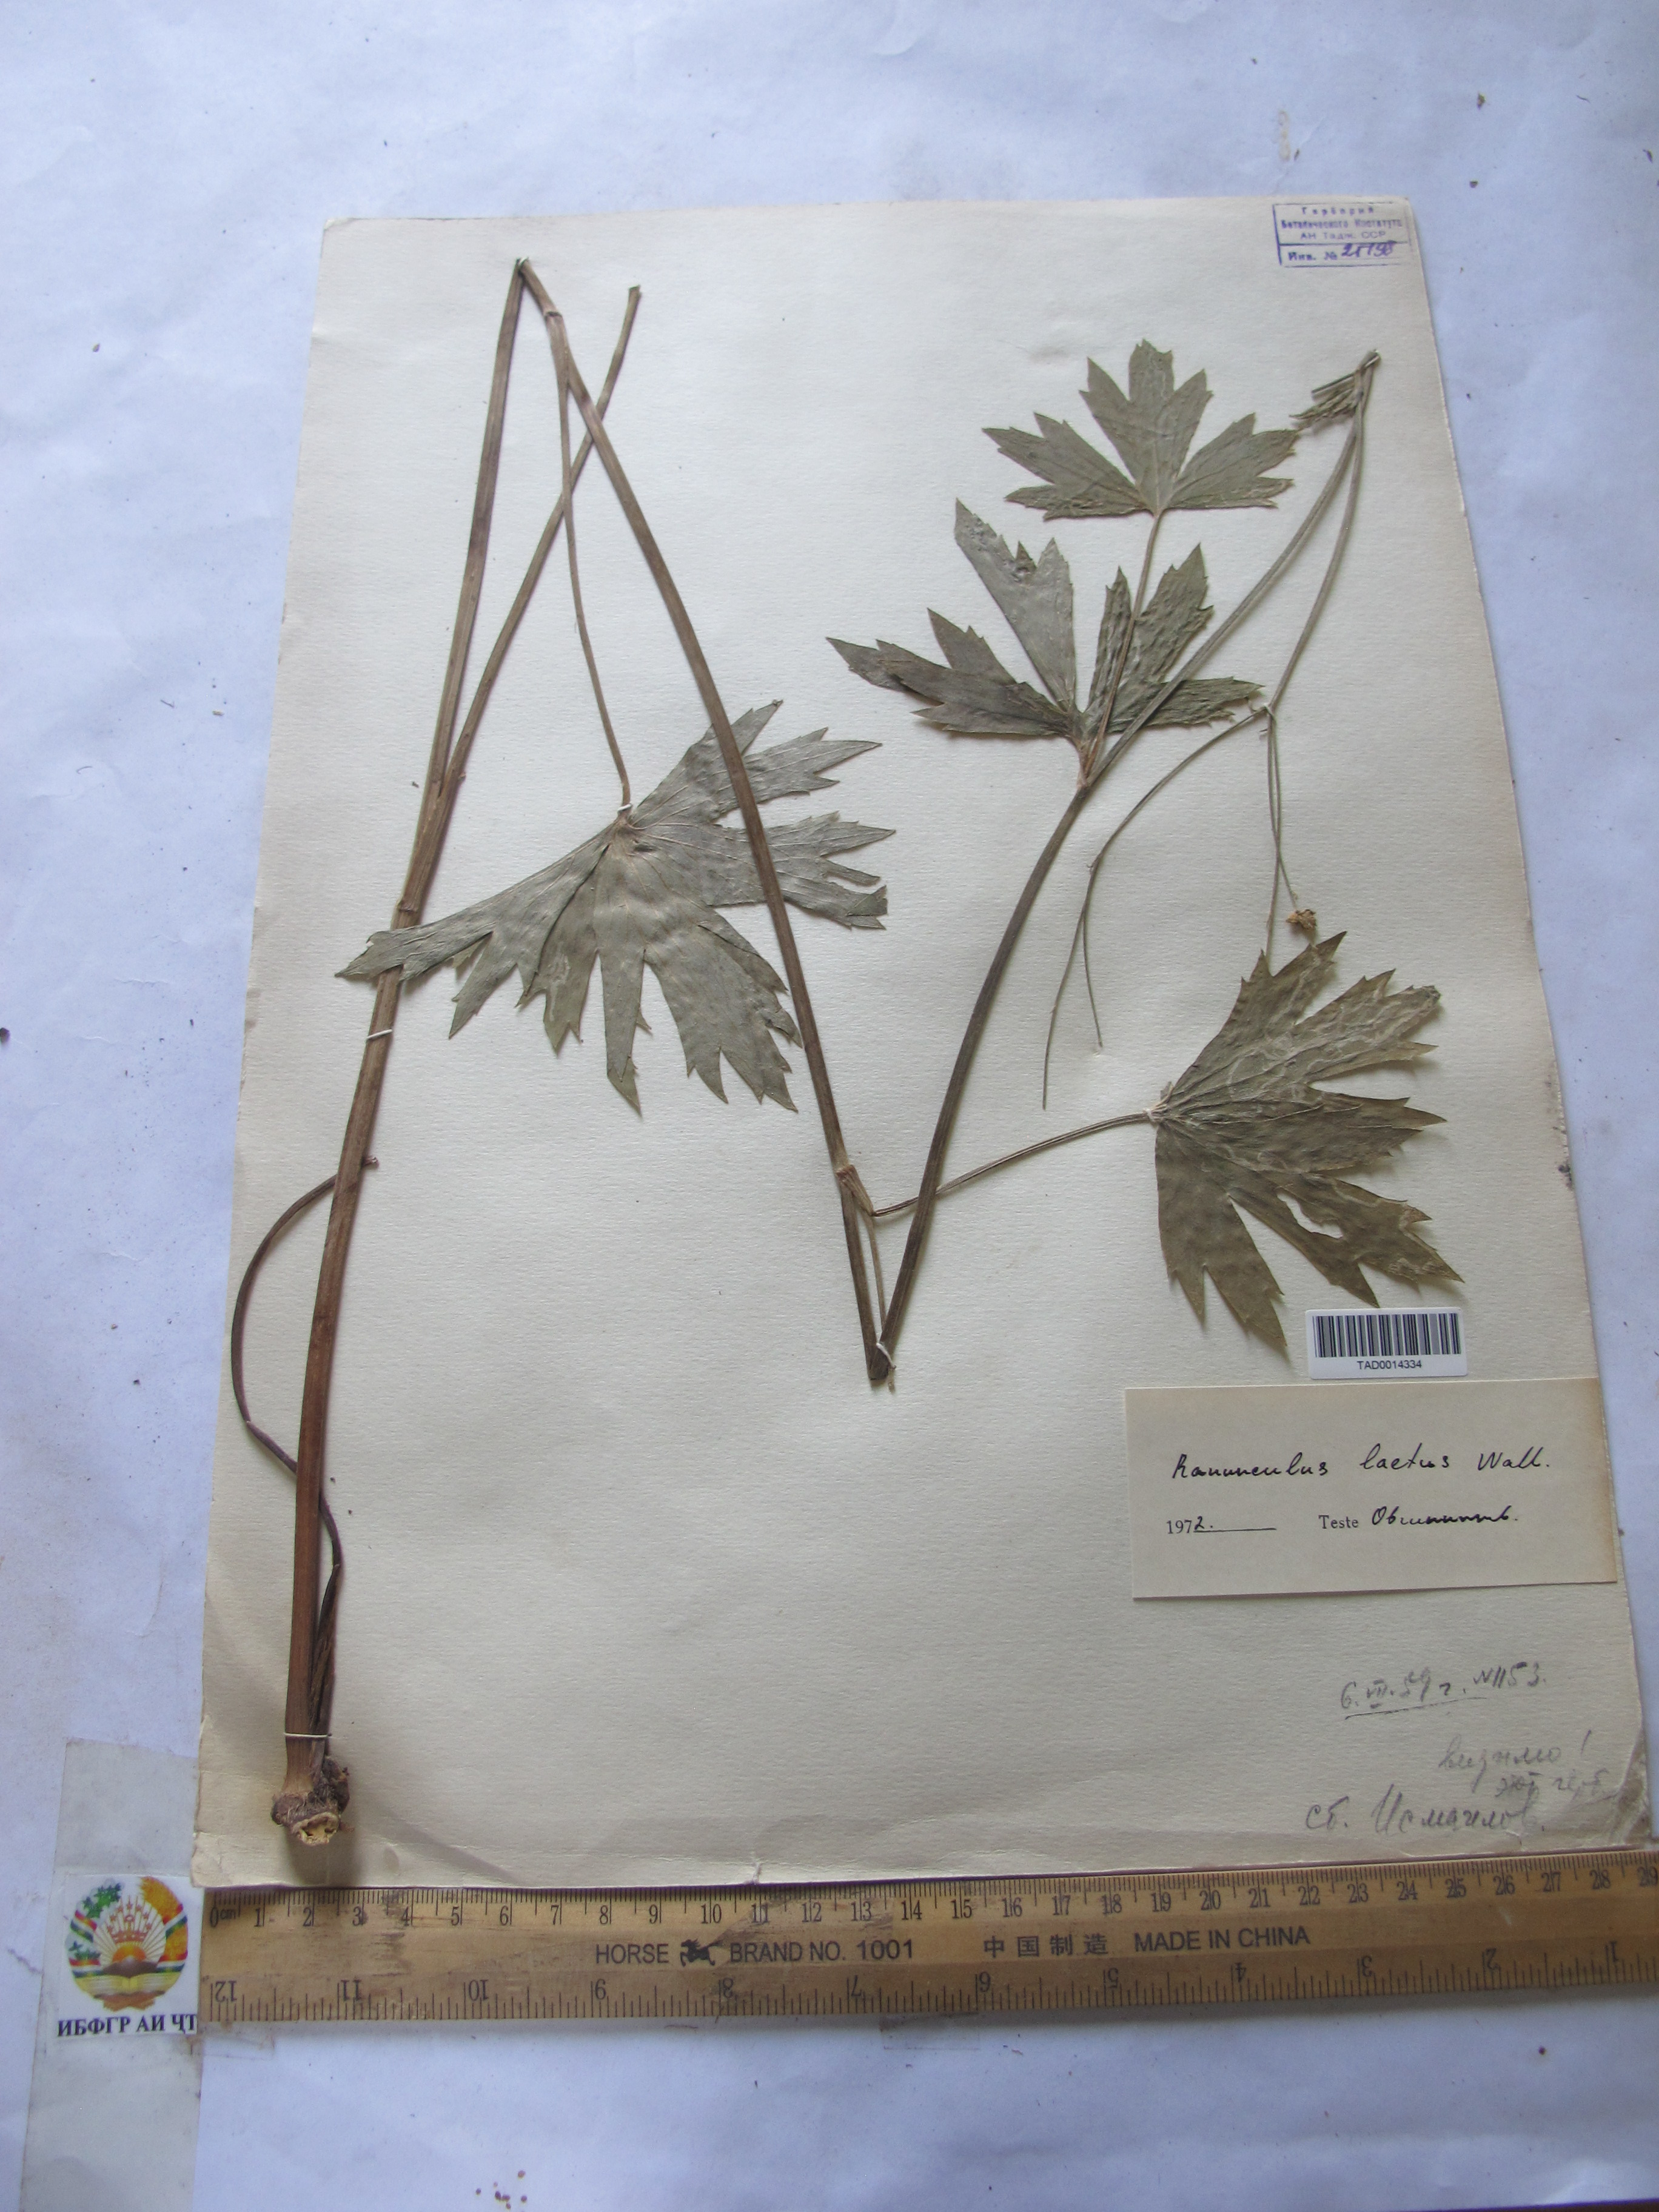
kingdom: Plantae
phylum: Tracheophyta
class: Magnoliopsida
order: Ranunculales
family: Ranunculaceae
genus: Ranunculus
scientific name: Ranunculus distans
